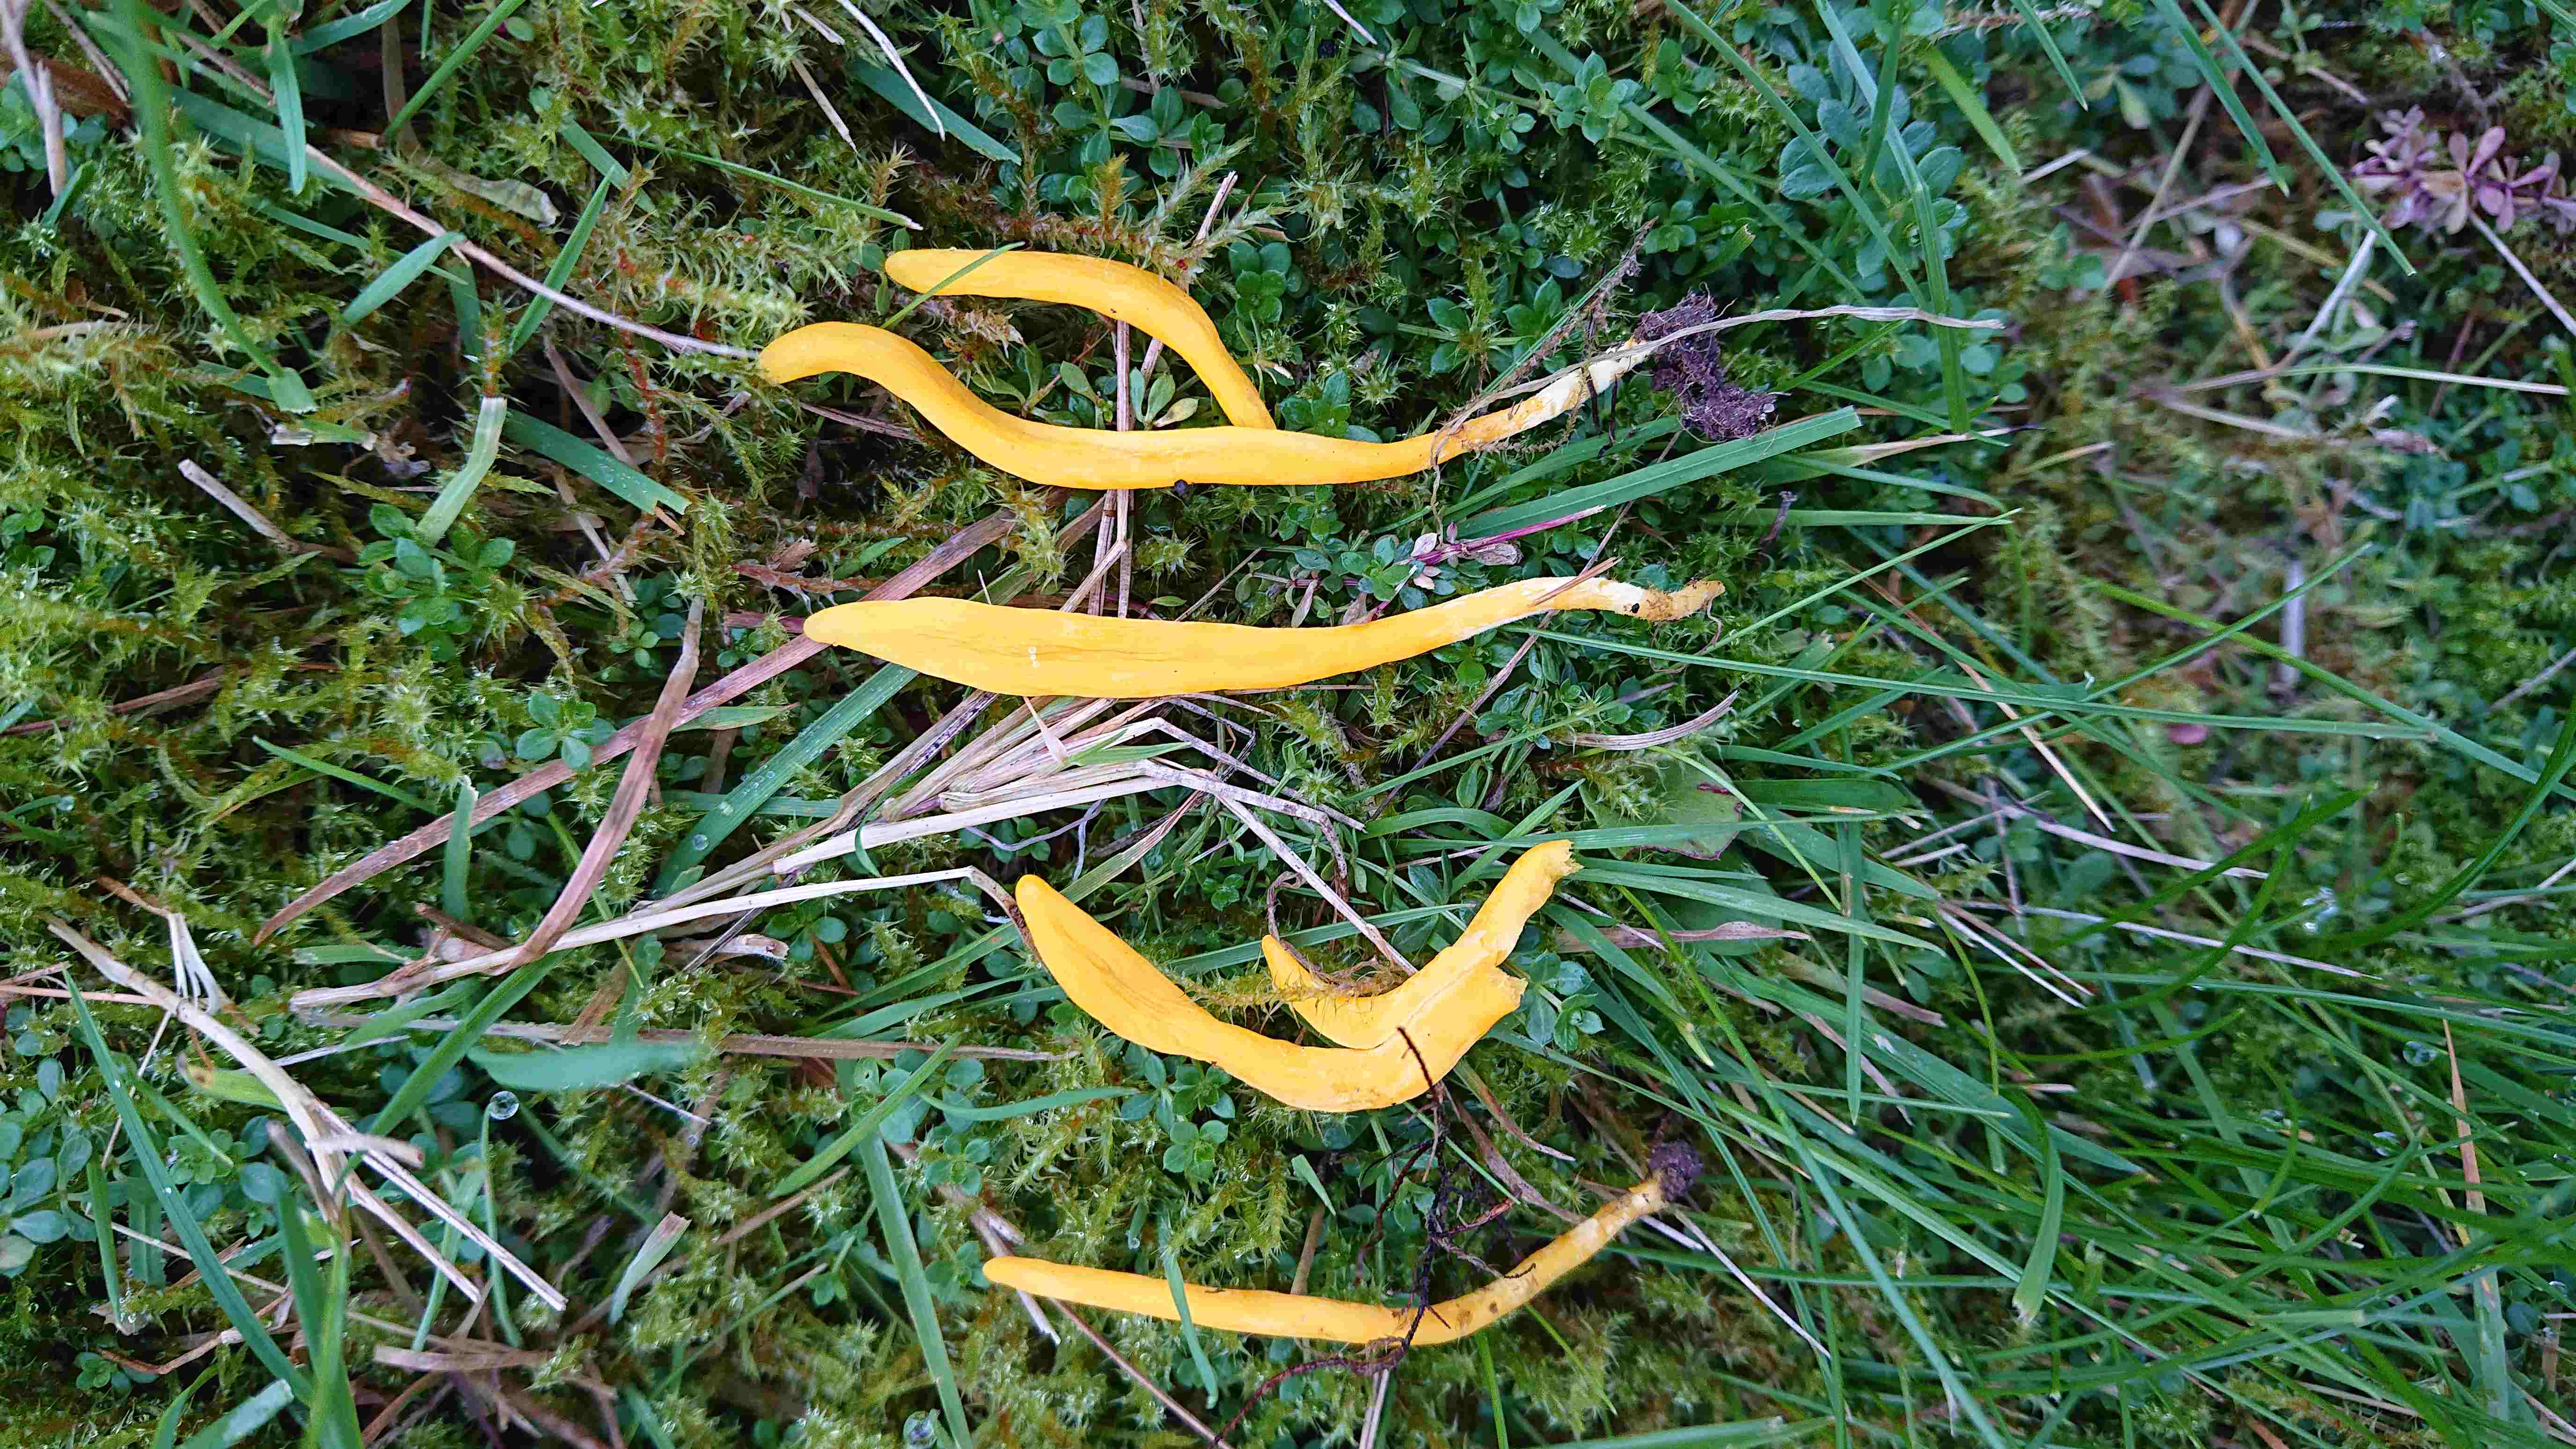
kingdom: Fungi
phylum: Basidiomycota
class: Agaricomycetes
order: Agaricales
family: Clavariaceae
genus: Clavulinopsis
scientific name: Clavulinopsis
